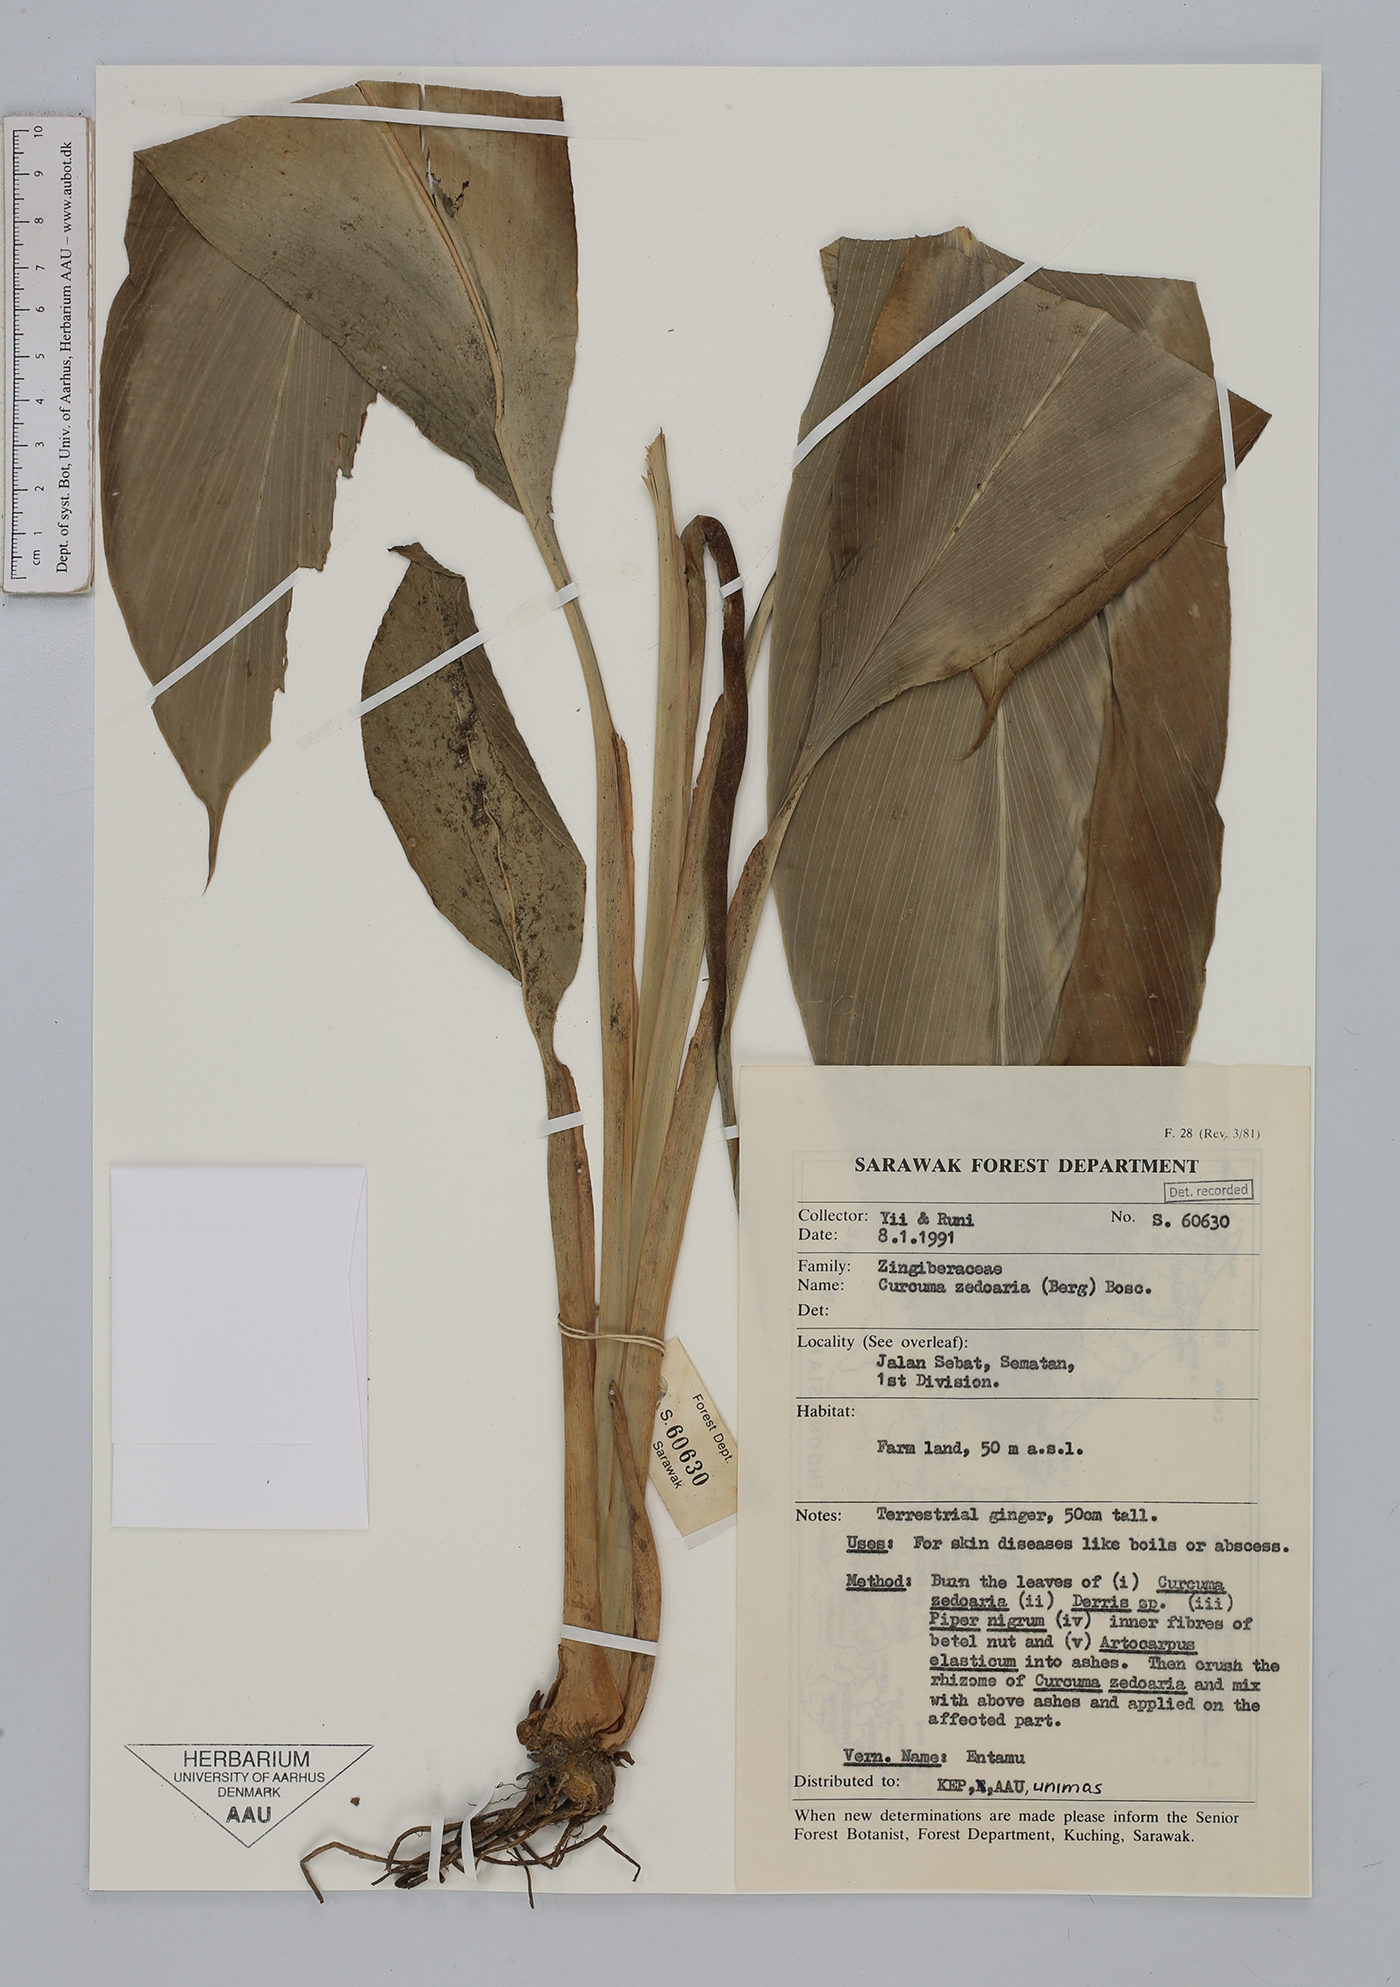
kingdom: Plantae
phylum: Tracheophyta
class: Liliopsida
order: Zingiberales
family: Zingiberaceae
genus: Curcuma
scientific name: Curcuma zedoaria
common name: Zedoary
